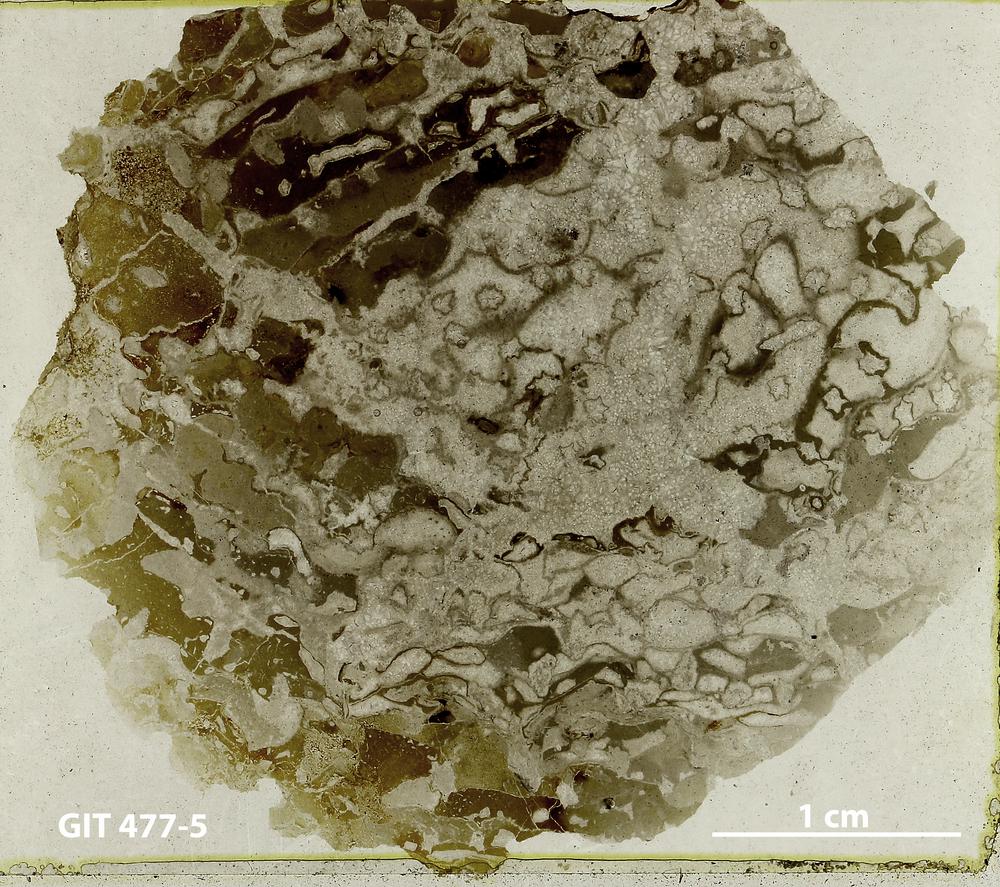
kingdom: Animalia
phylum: Porifera
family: Stromatoceriidae
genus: Cystistroma
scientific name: Cystistroma
